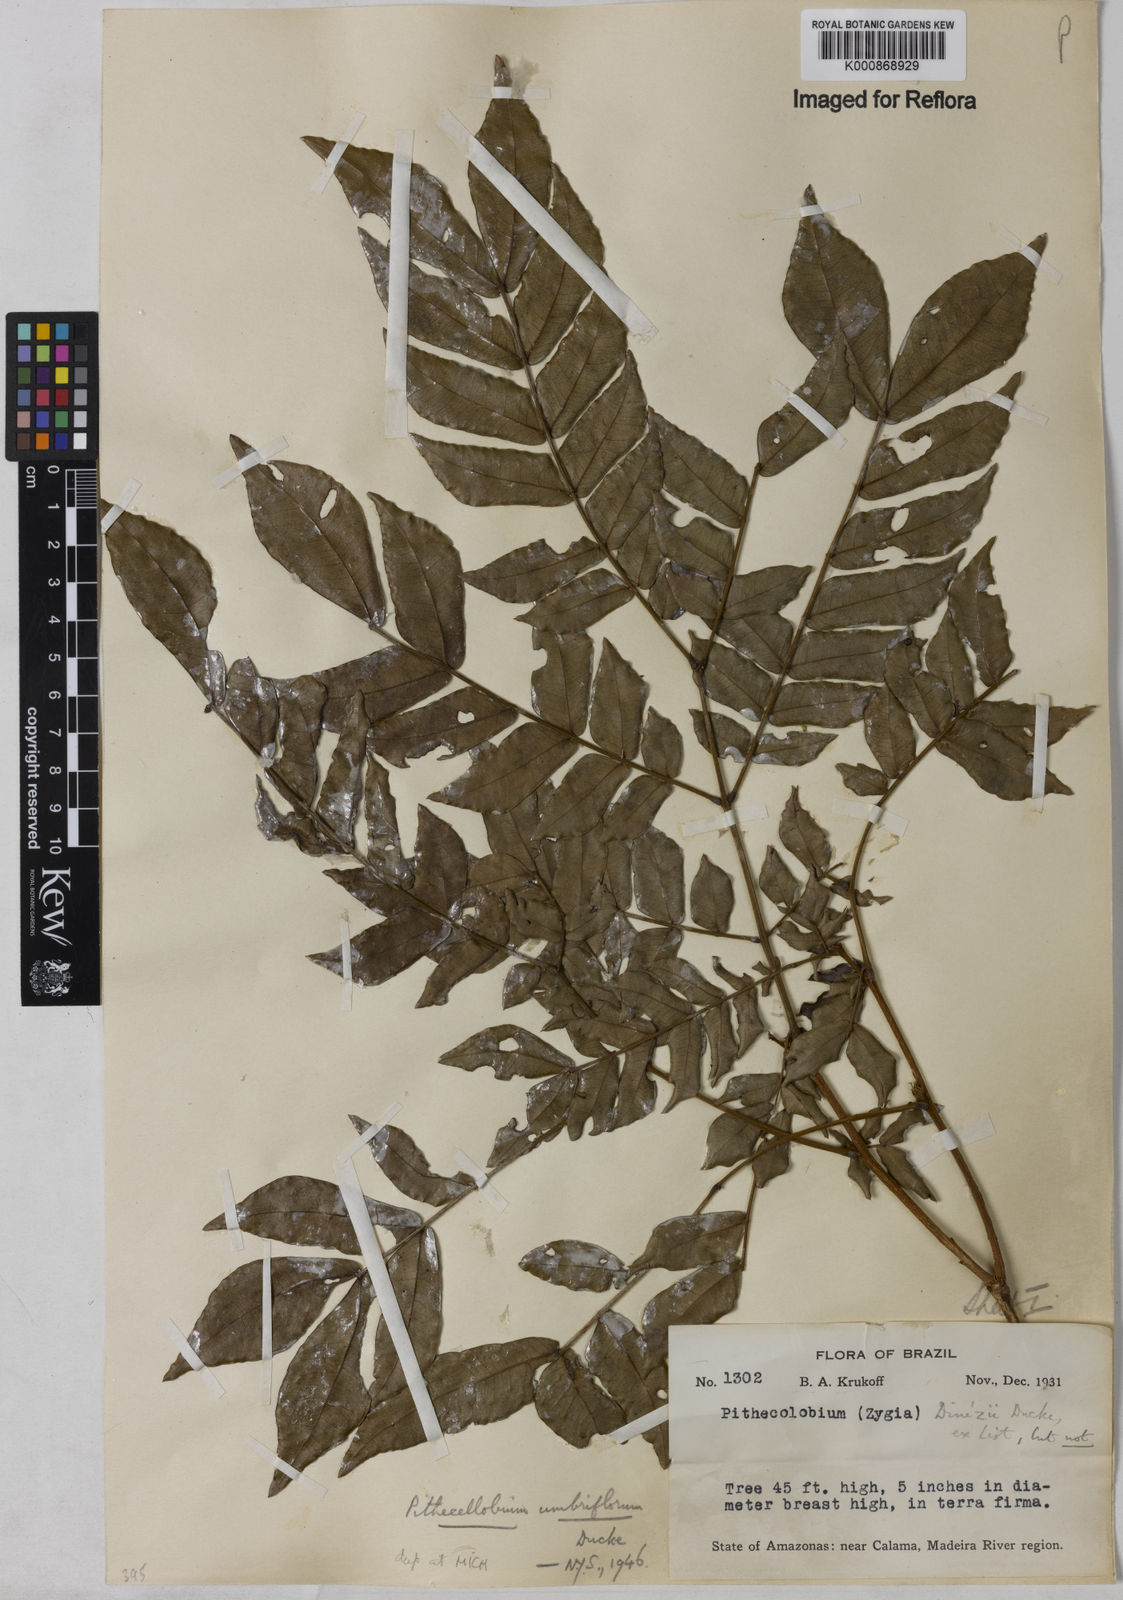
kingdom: Plantae
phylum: Tracheophyta
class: Magnoliopsida
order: Fabales
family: Fabaceae
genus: Zygia
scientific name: Zygia dinizii
